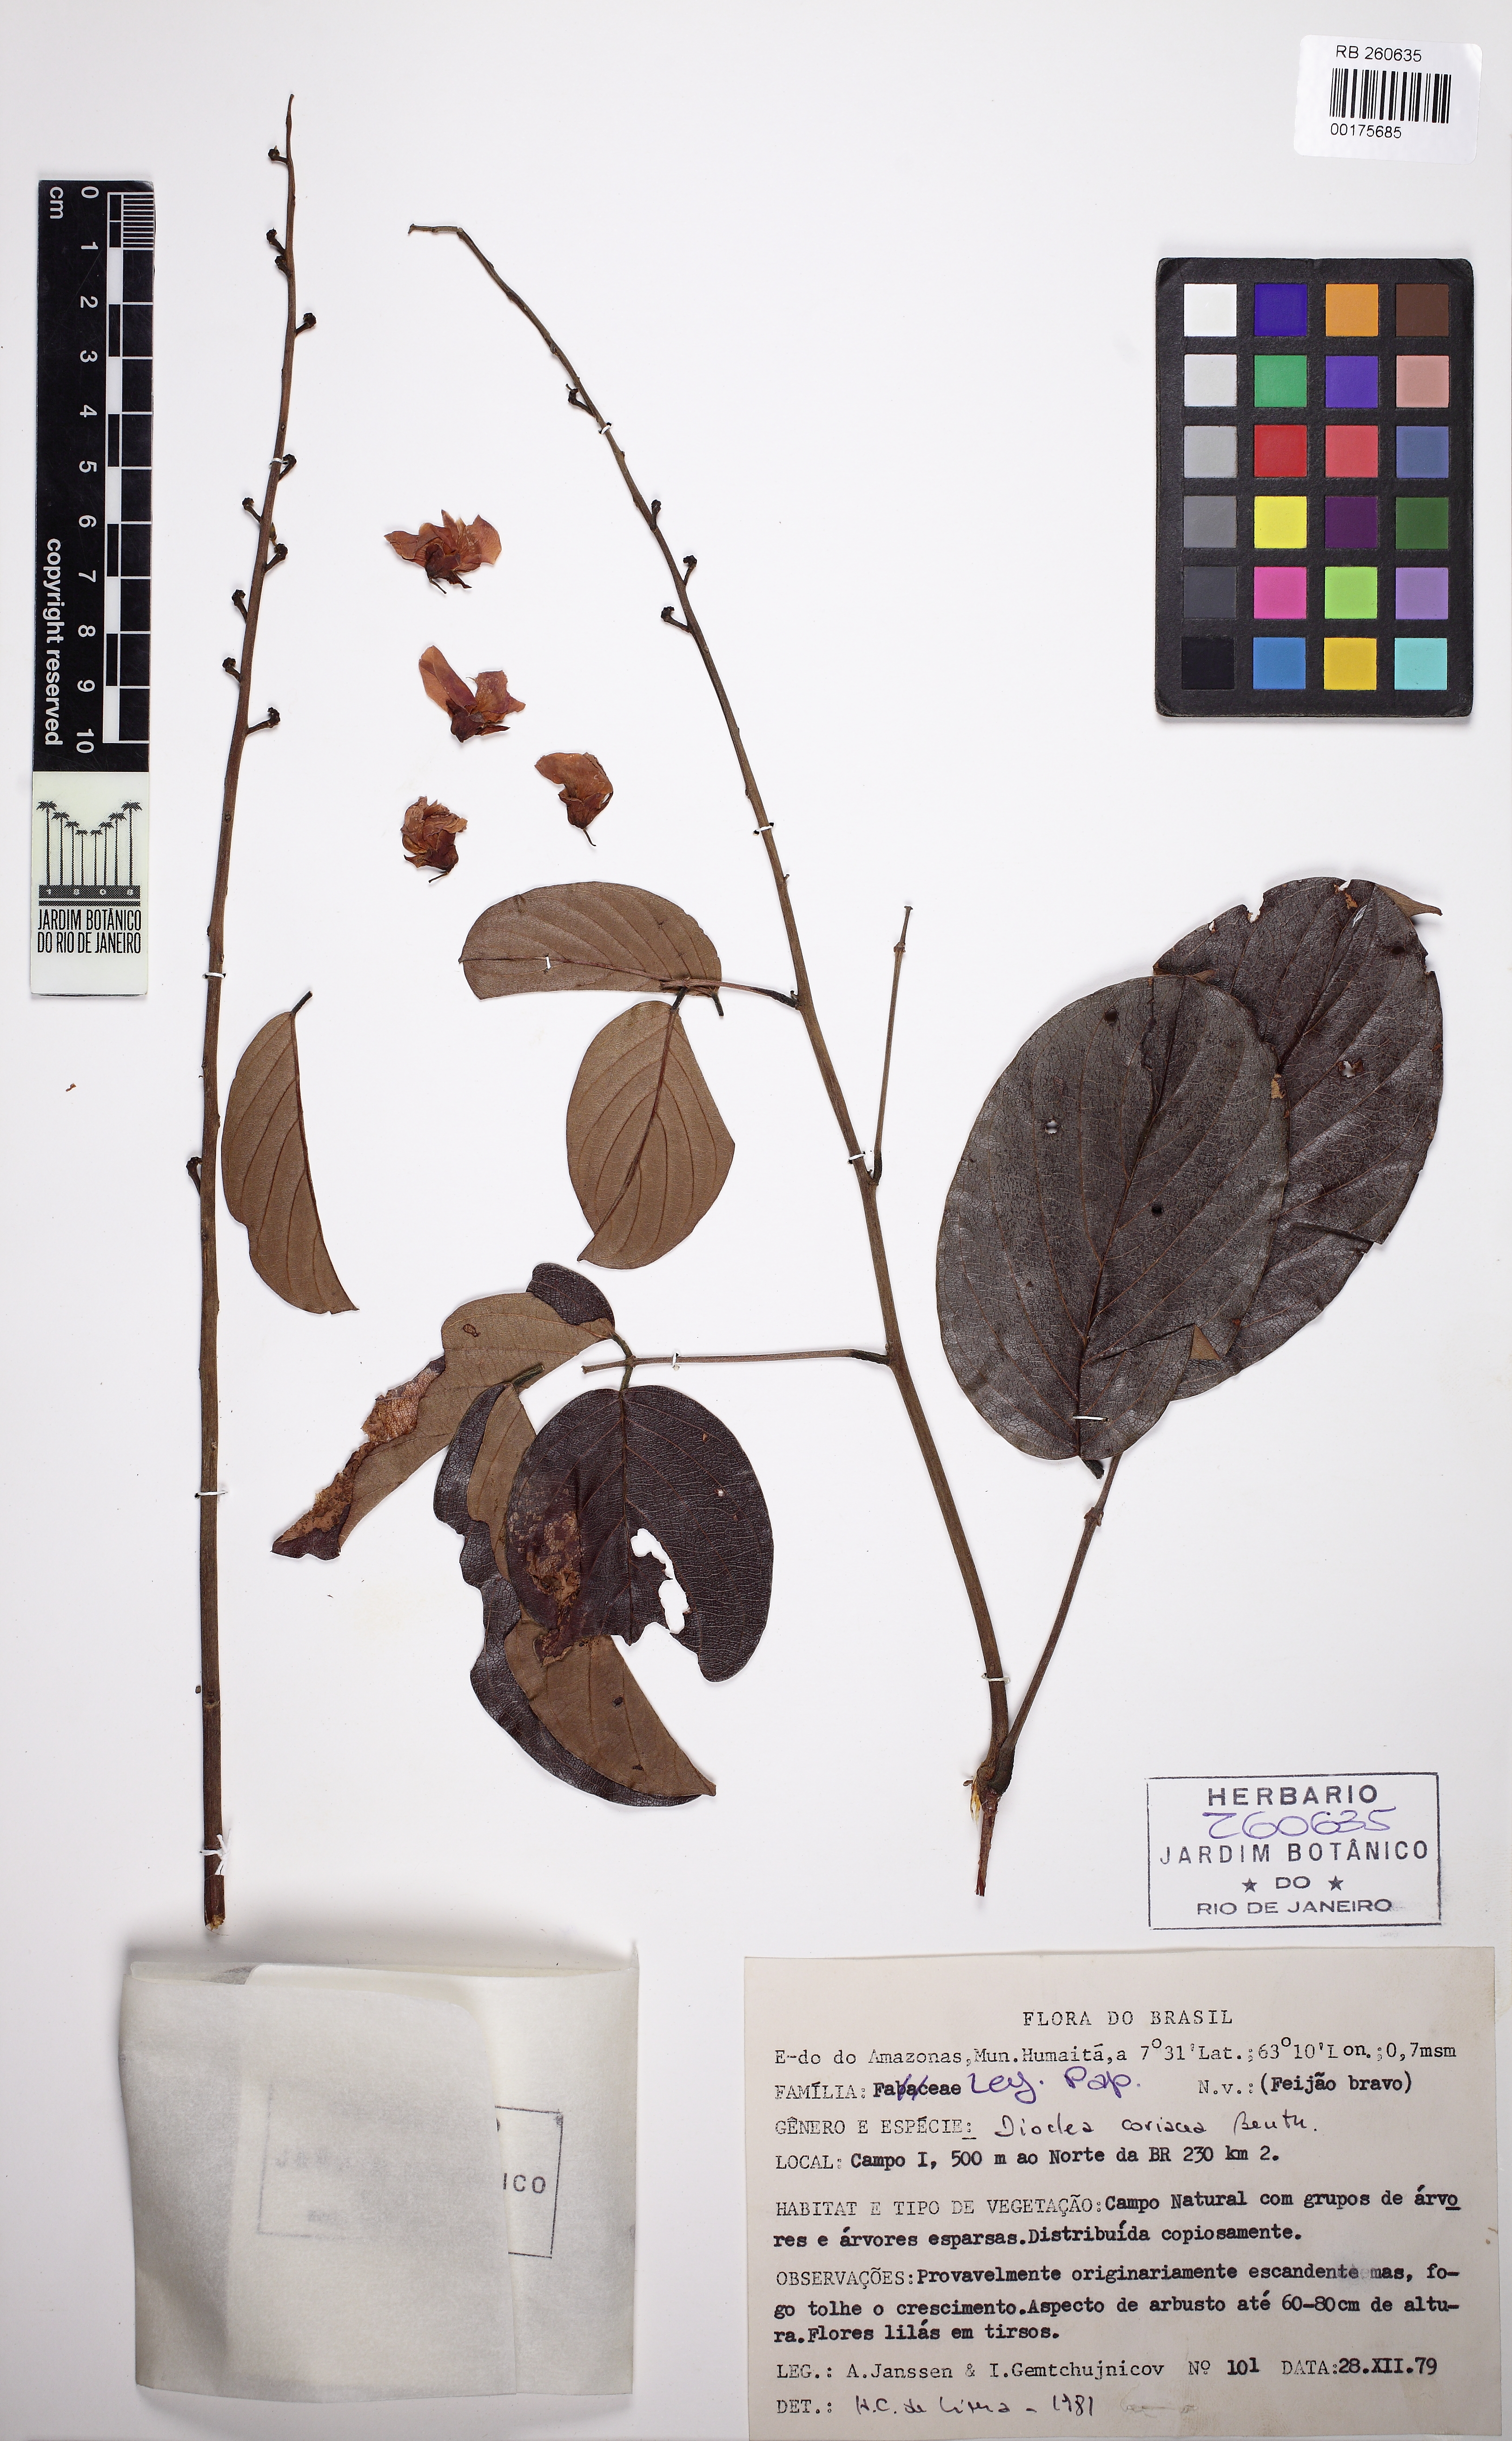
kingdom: Plantae
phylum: Tracheophyta
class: Magnoliopsida
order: Fabales
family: Fabaceae
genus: Macropsychanthus
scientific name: Macropsychanthus coriaceus
